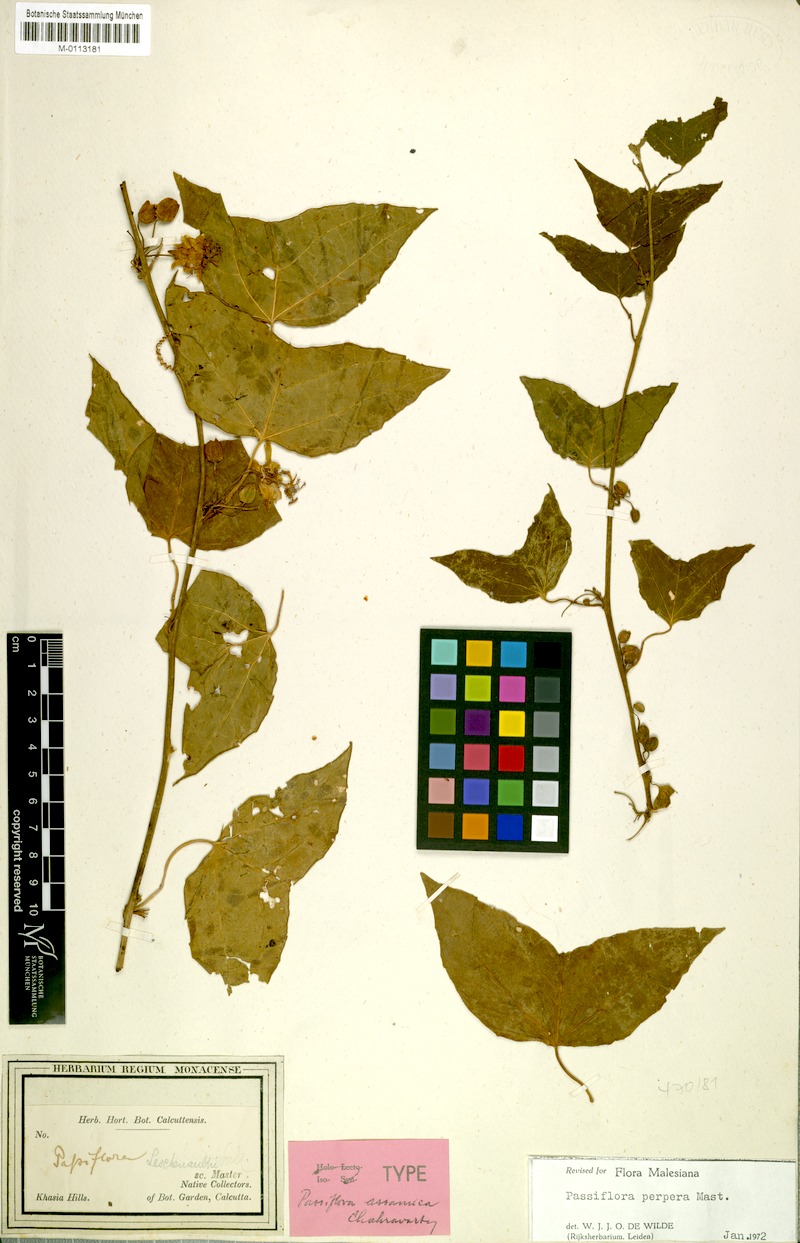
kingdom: Plantae
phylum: Tracheophyta
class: Magnoliopsida
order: Malpighiales
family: Passifloraceae
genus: Passiflora
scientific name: Passiflora wilsonii
